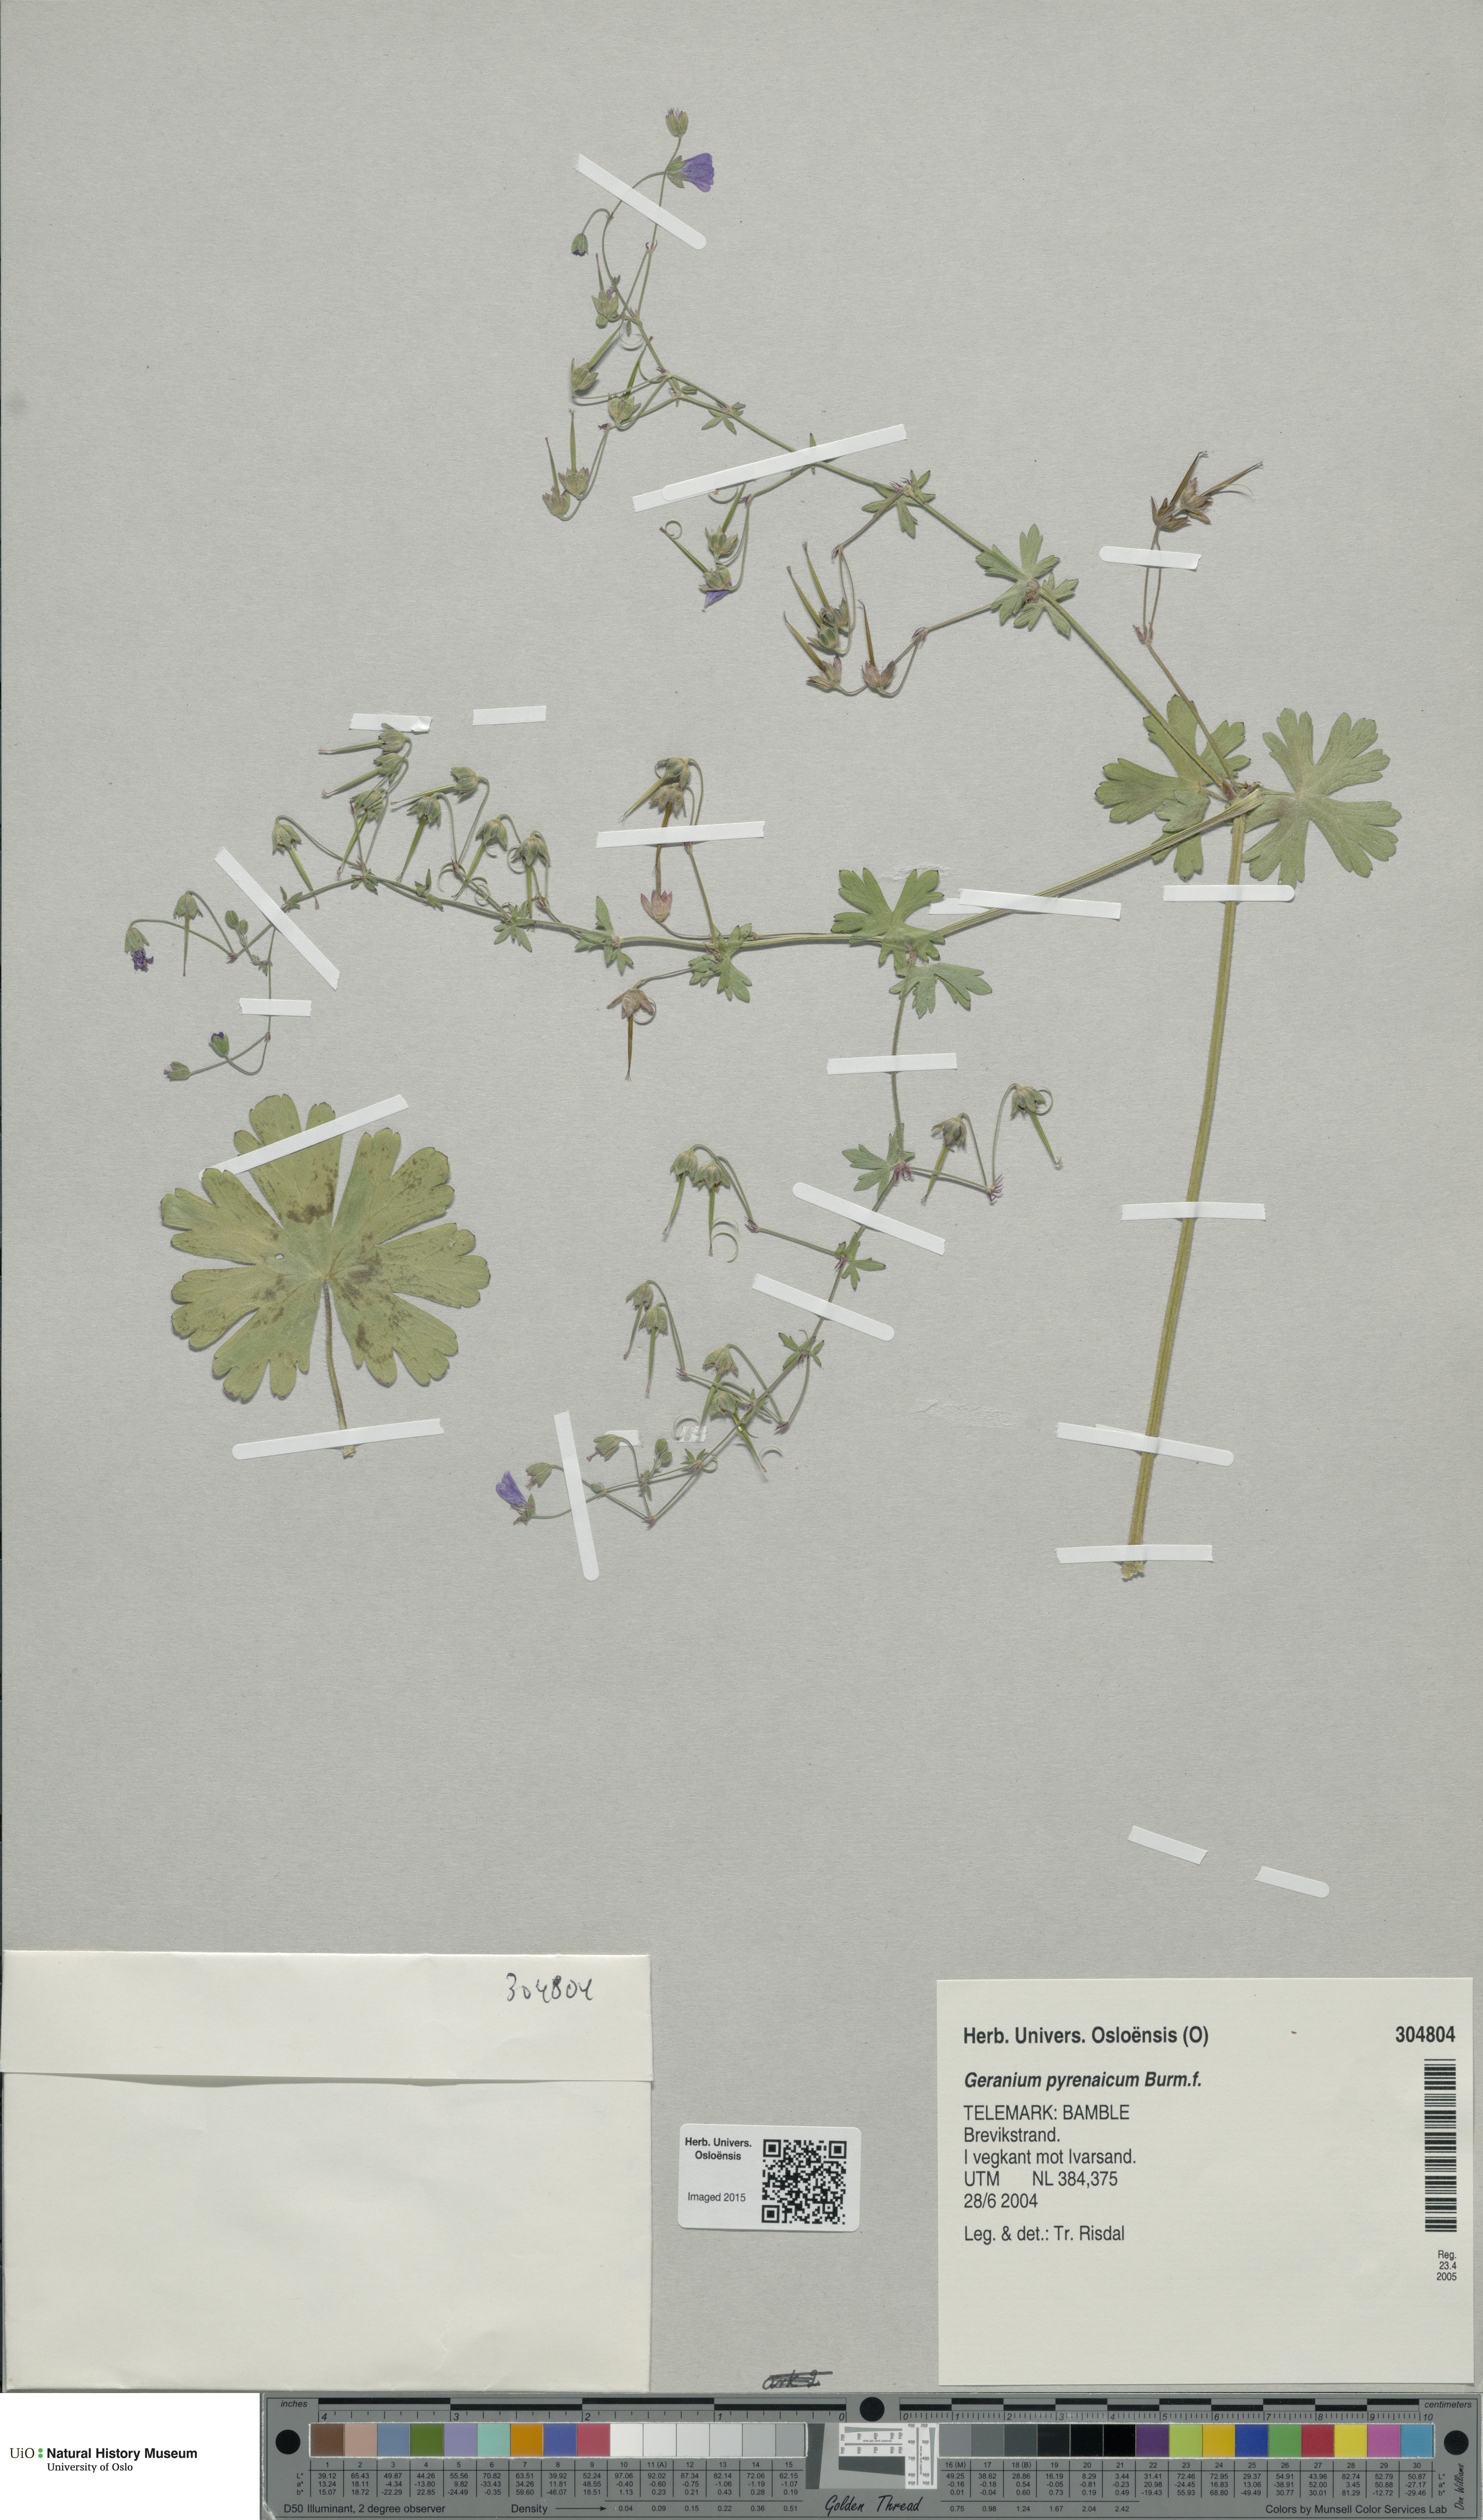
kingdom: Plantae
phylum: Tracheophyta
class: Magnoliopsida
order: Geraniales
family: Geraniaceae
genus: Geranium
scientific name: Geranium pyrenaicum
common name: Hedgerow crane's-bill
